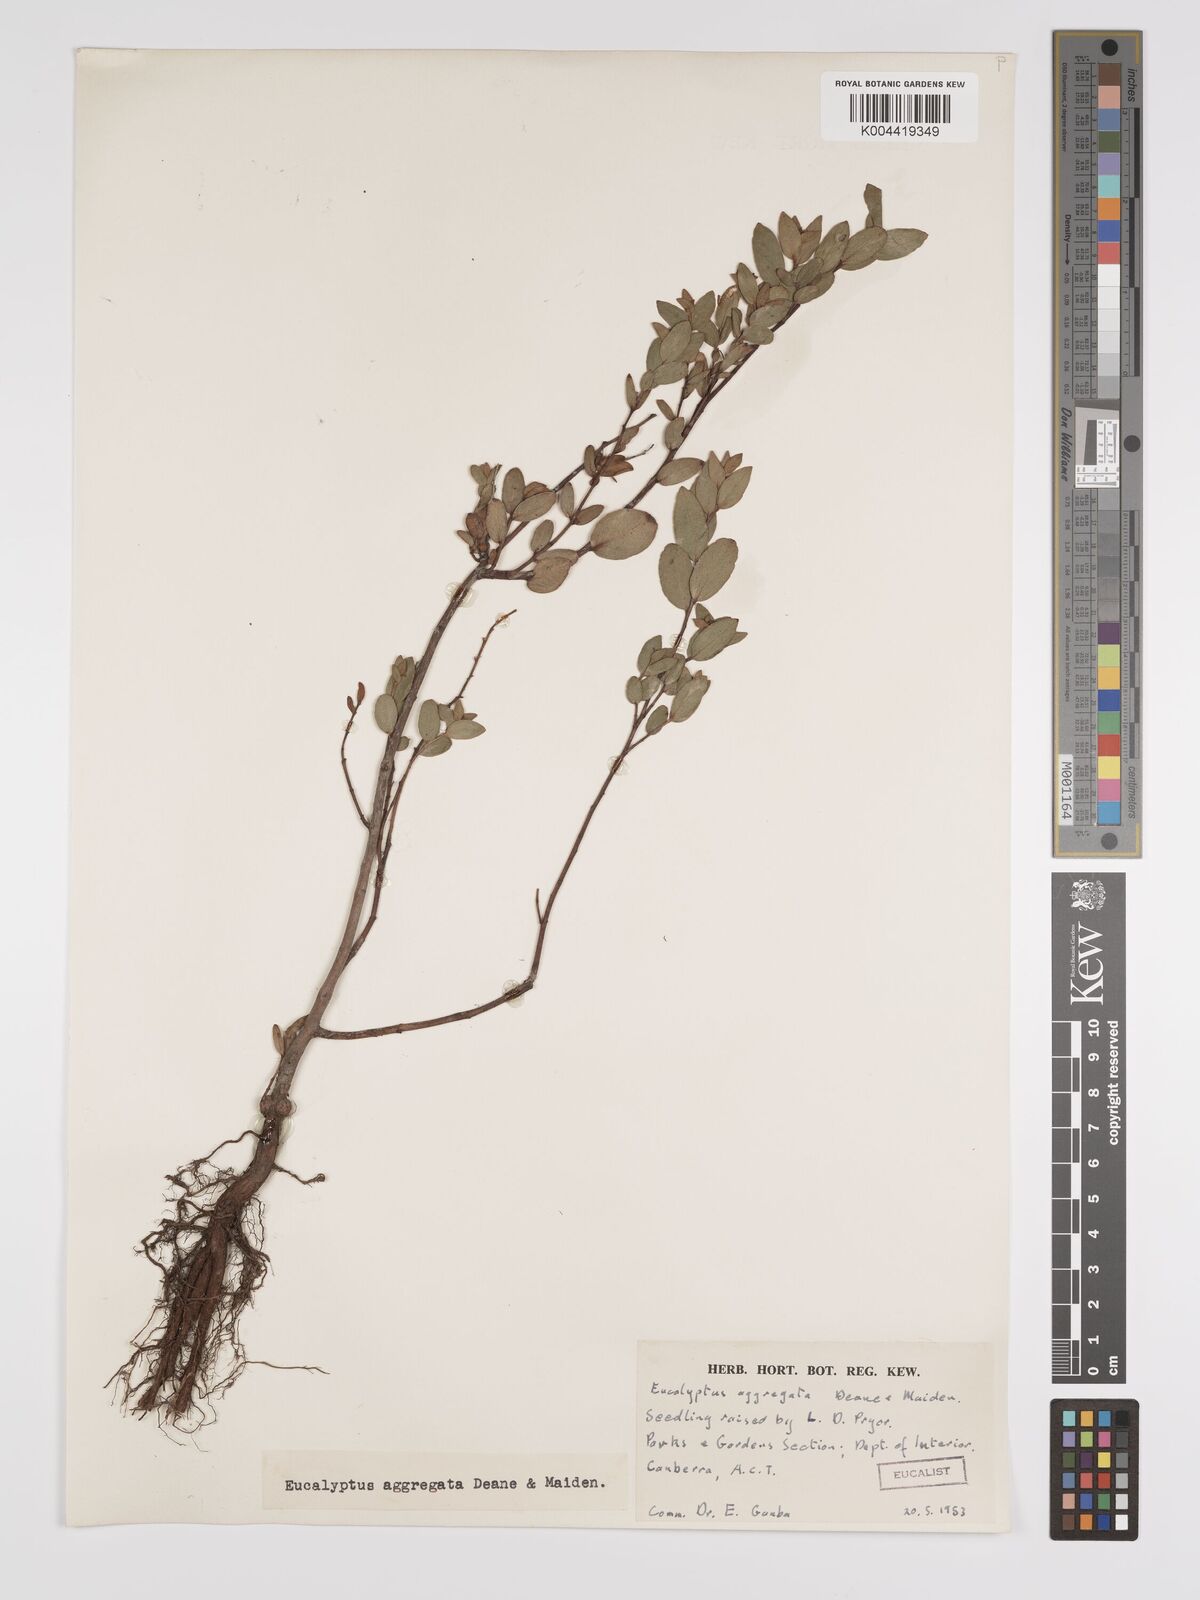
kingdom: Plantae
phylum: Tracheophyta
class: Magnoliopsida
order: Myrtales
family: Myrtaceae
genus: Eucalyptus
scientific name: Eucalyptus aggregata
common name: Black gum
